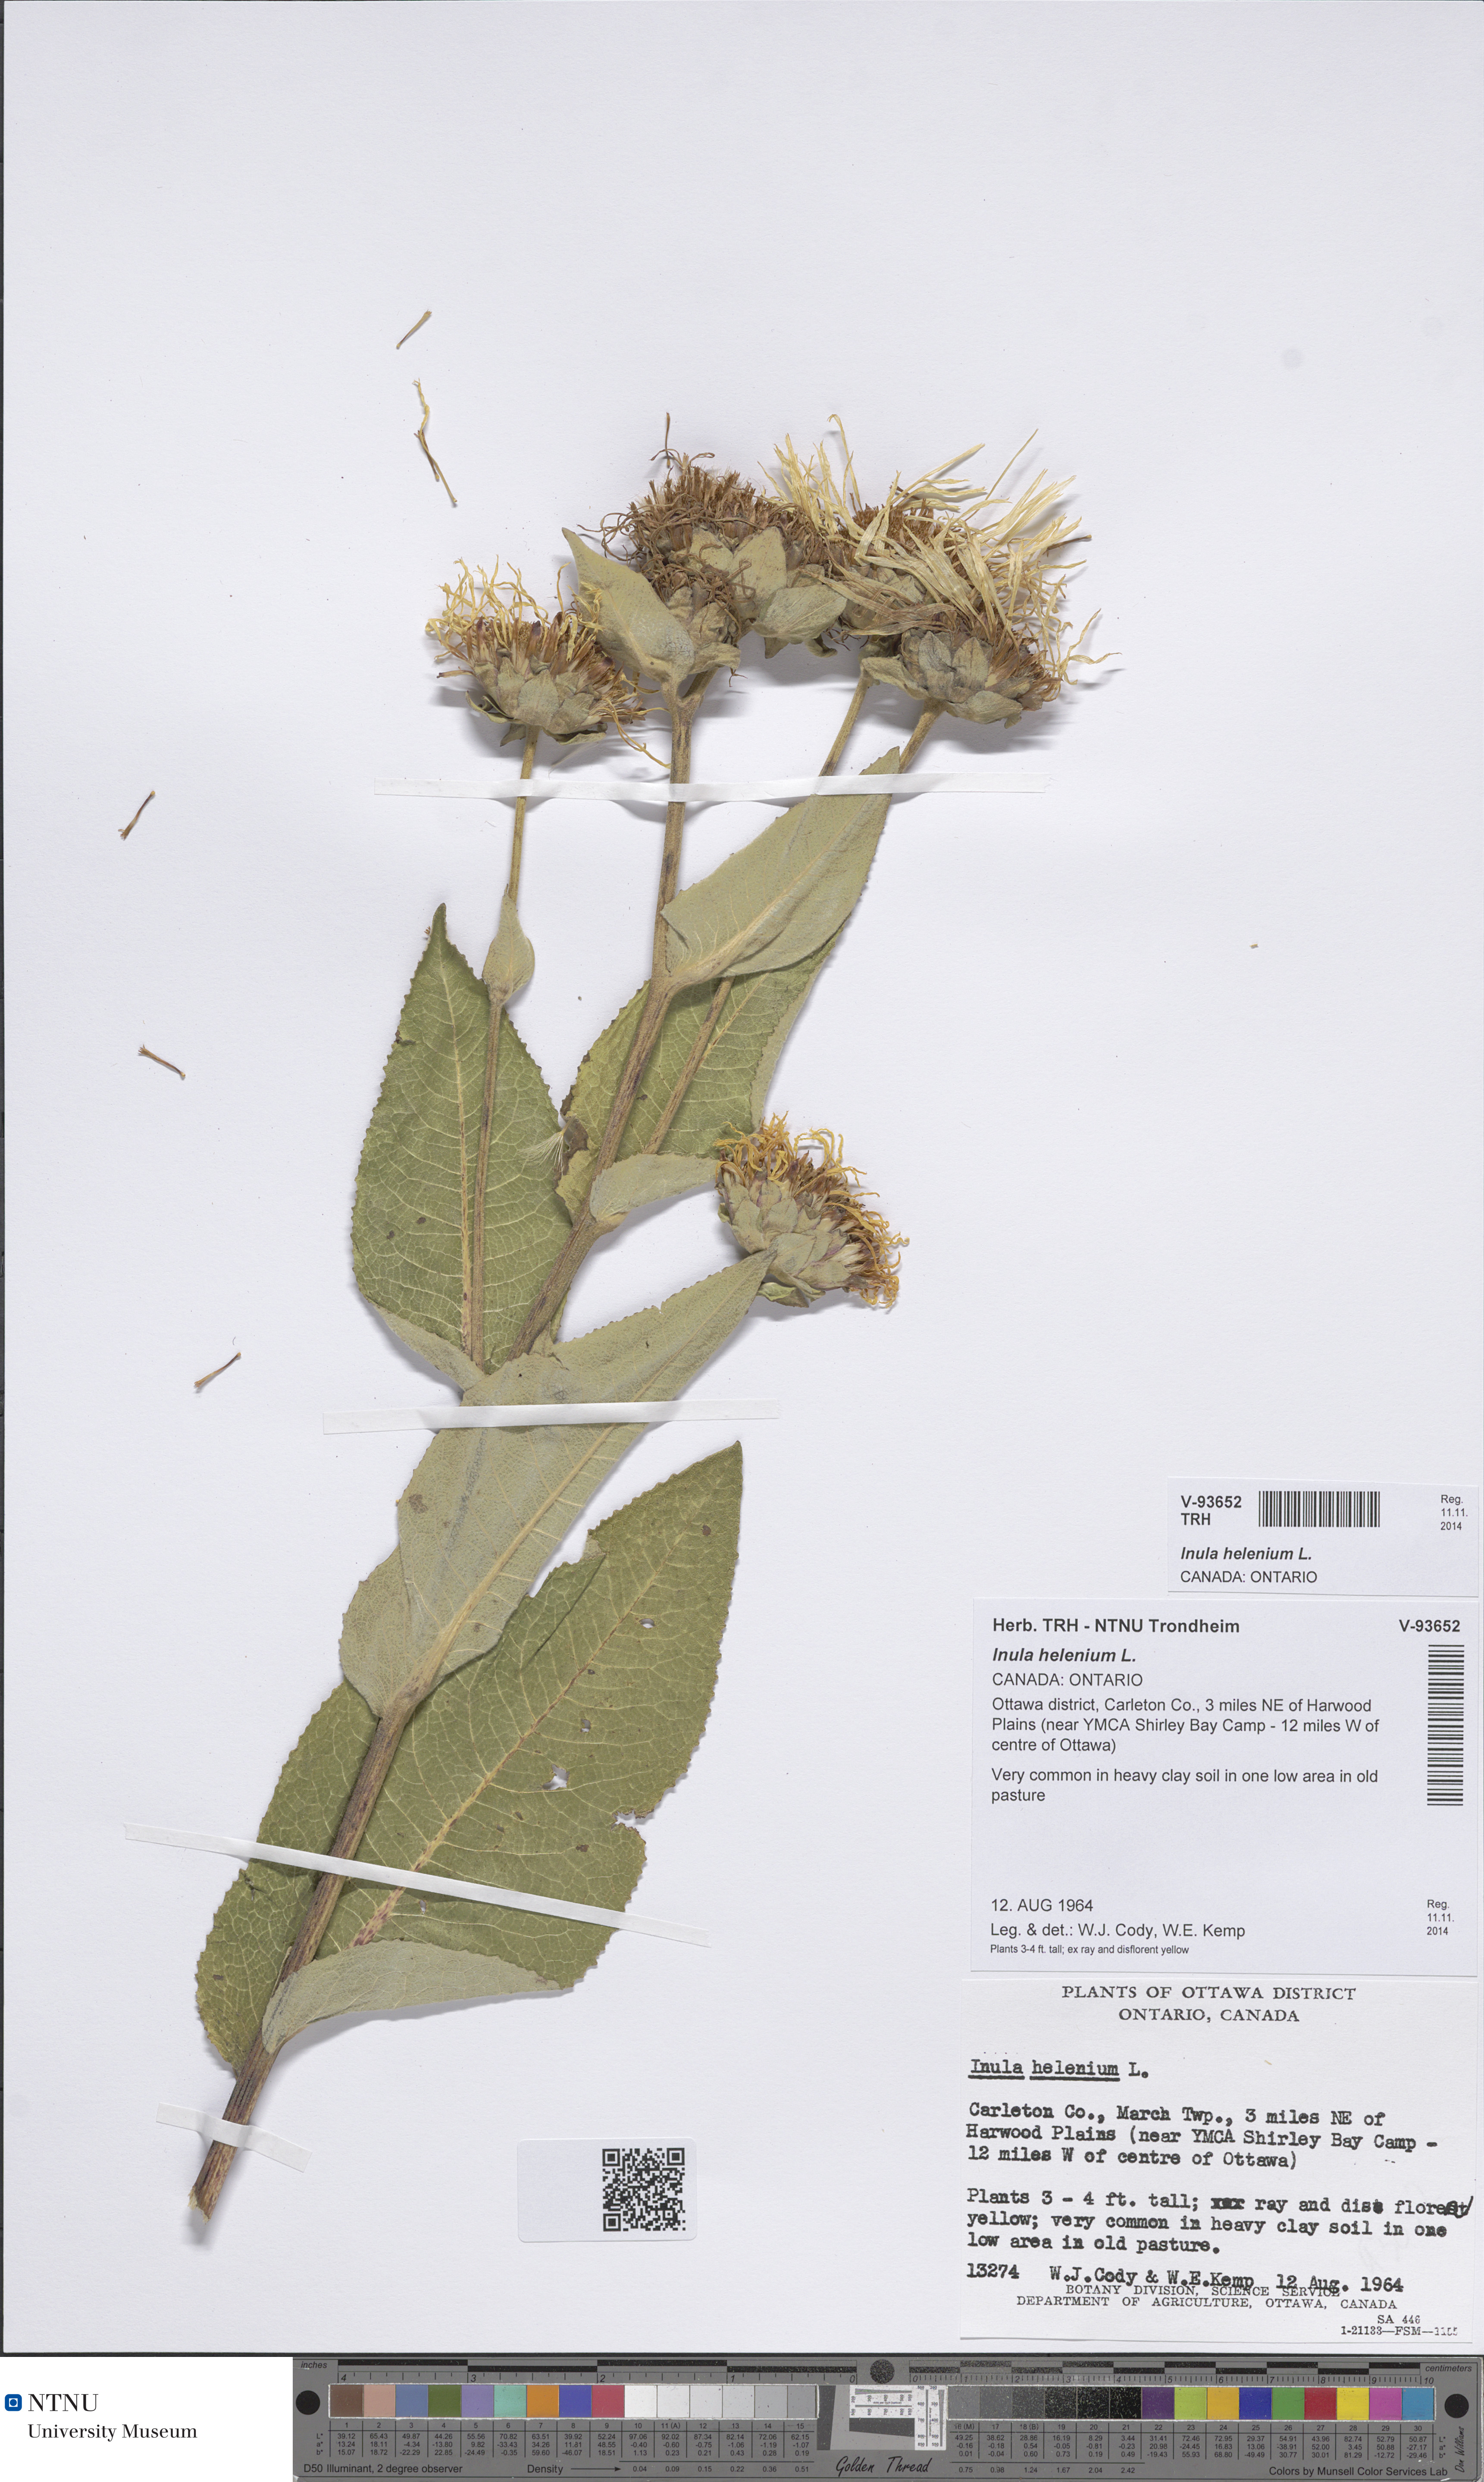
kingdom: Plantae
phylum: Tracheophyta
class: Magnoliopsida
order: Asterales
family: Asteraceae
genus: Inula
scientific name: Inula helenium
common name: Elecampane
